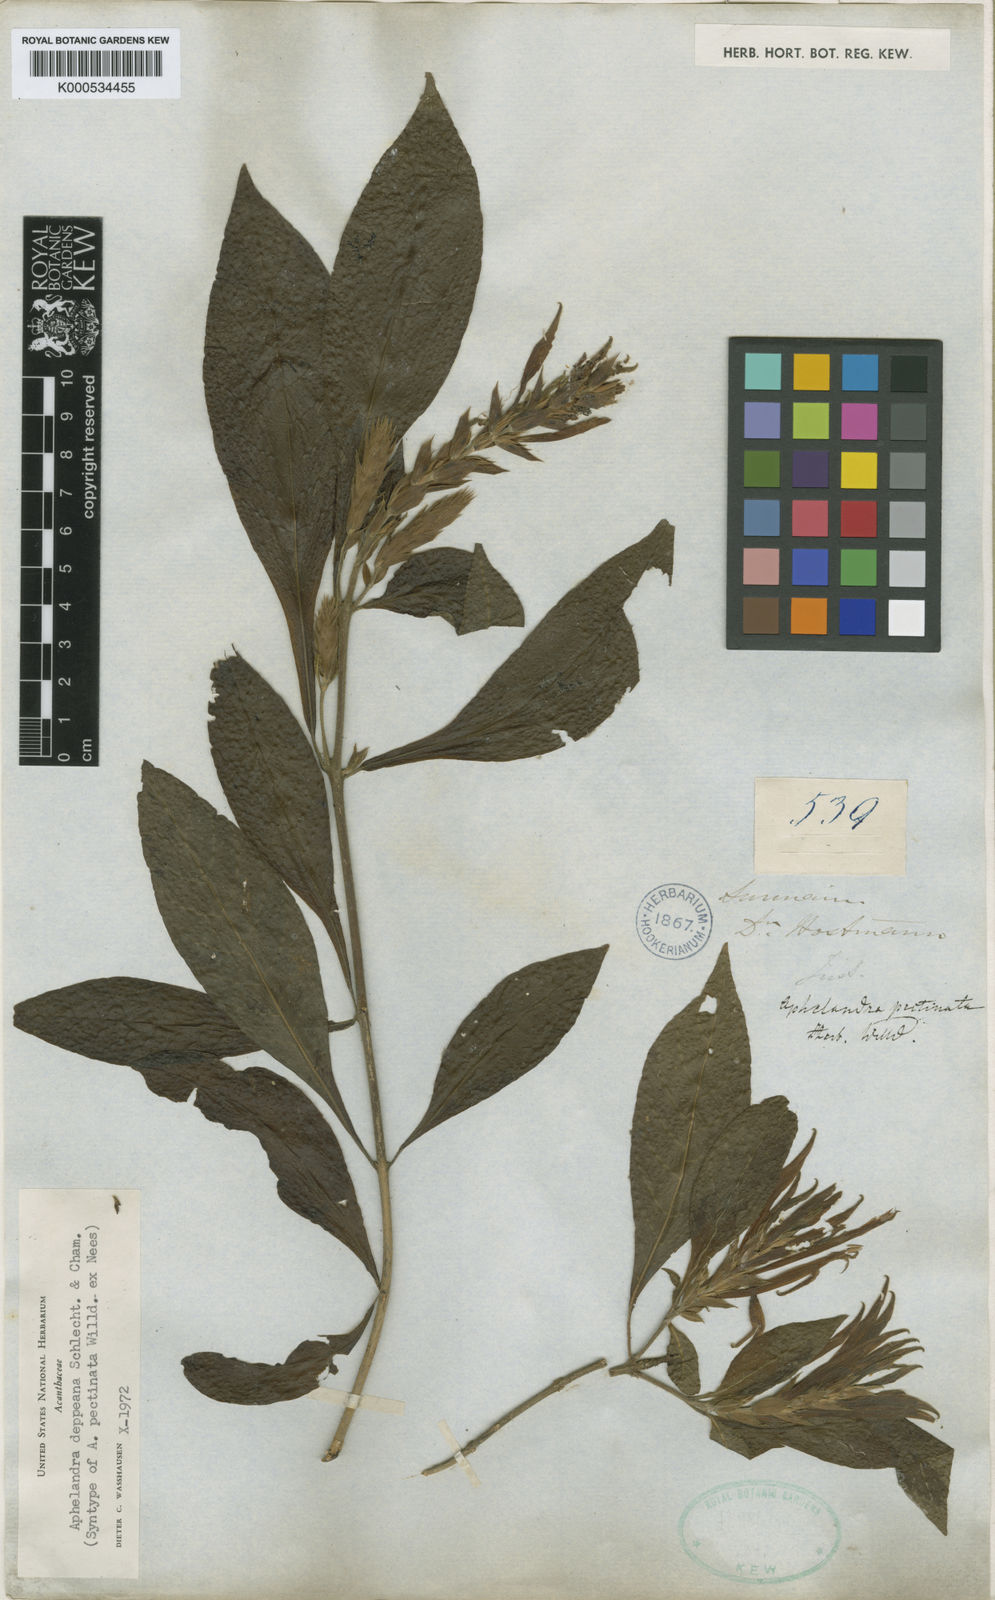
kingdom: Plantae
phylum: Tracheophyta
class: Magnoliopsida
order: Lamiales
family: Acanthaceae
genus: Aphelandra
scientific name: Aphelandra scabra
